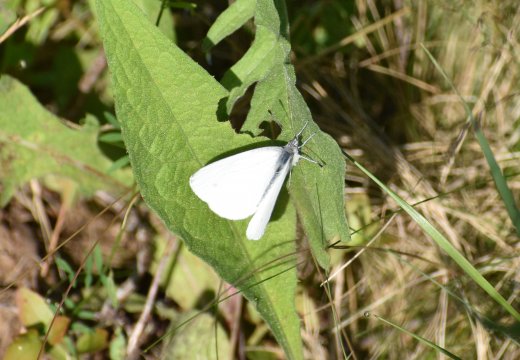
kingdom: Animalia
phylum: Arthropoda
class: Insecta
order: Lepidoptera
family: Pieridae
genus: Pieris
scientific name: Pieris rapae
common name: Cabbage White
